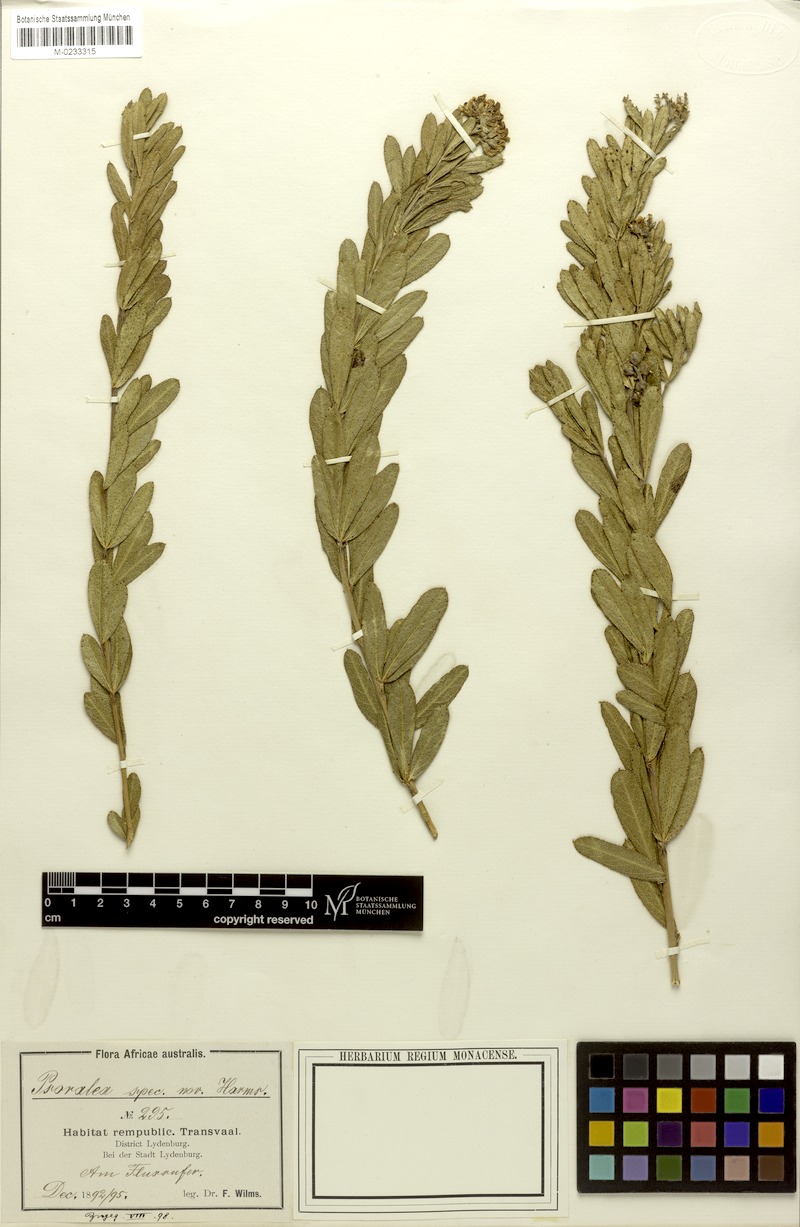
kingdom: Plantae
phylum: Tracheophyta
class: Magnoliopsida
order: Fabales
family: Fabaceae
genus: Psoralea
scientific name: Psoralea wilmsii
